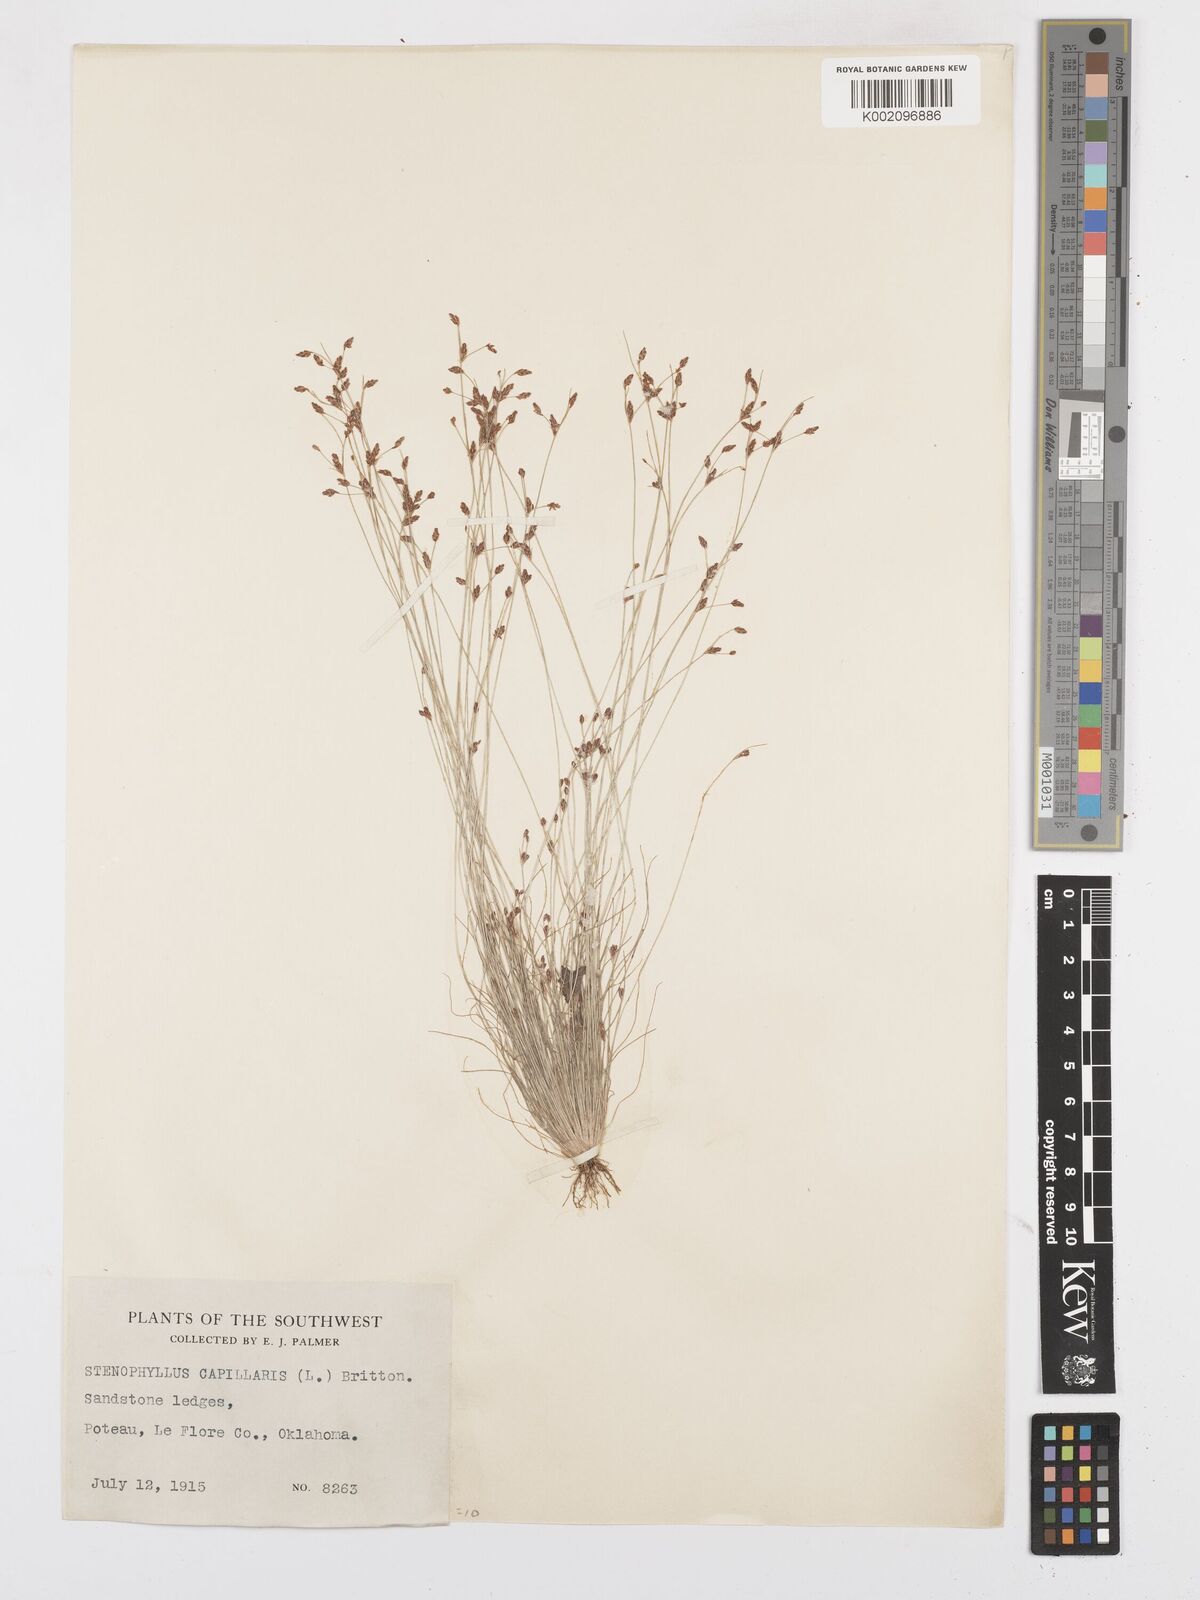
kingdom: Plantae
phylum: Tracheophyta
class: Liliopsida
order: Poales
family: Cyperaceae
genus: Bulbostylis
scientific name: Bulbostylis capillaris
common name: Densetuft hairsedge
